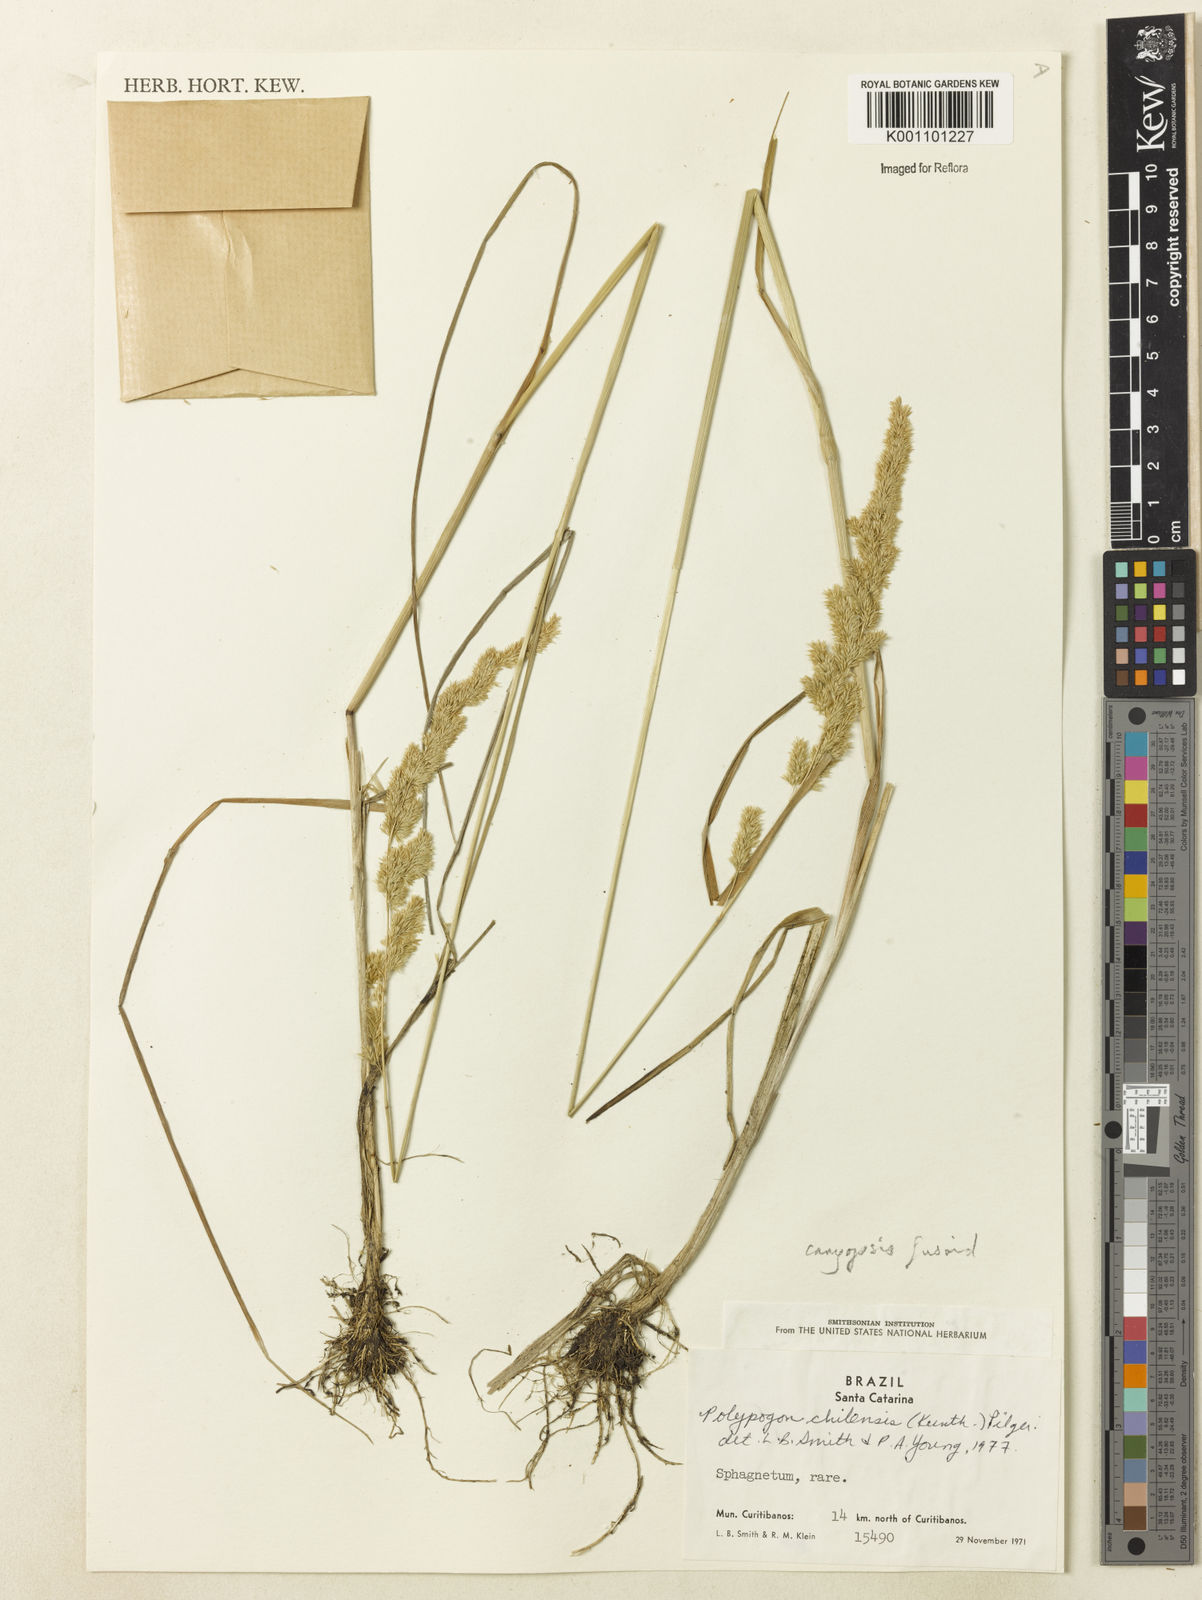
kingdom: Plantae
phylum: Tracheophyta
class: Liliopsida
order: Poales
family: Poaceae
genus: Polypogon
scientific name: Polypogon chilensis
